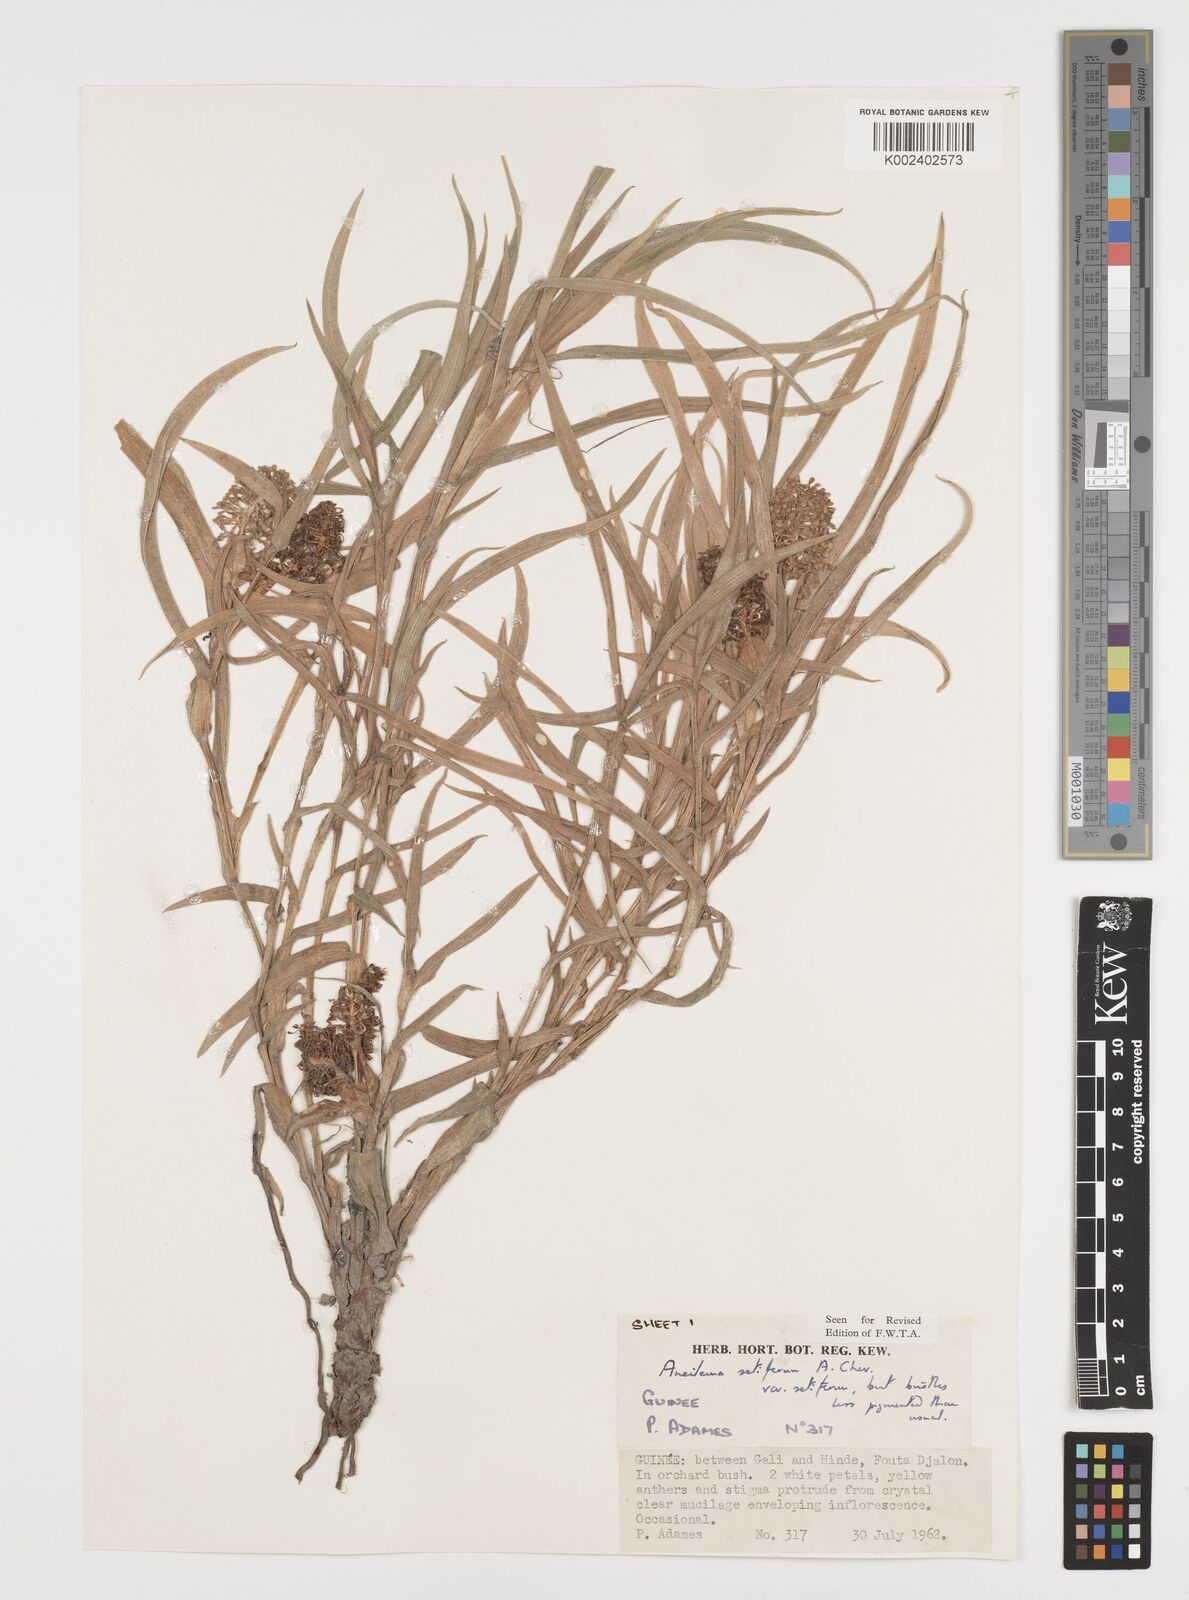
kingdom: Plantae
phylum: Tracheophyta
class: Liliopsida
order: Commelinales
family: Commelinaceae
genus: Aneilema
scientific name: Aneilema setiferum
